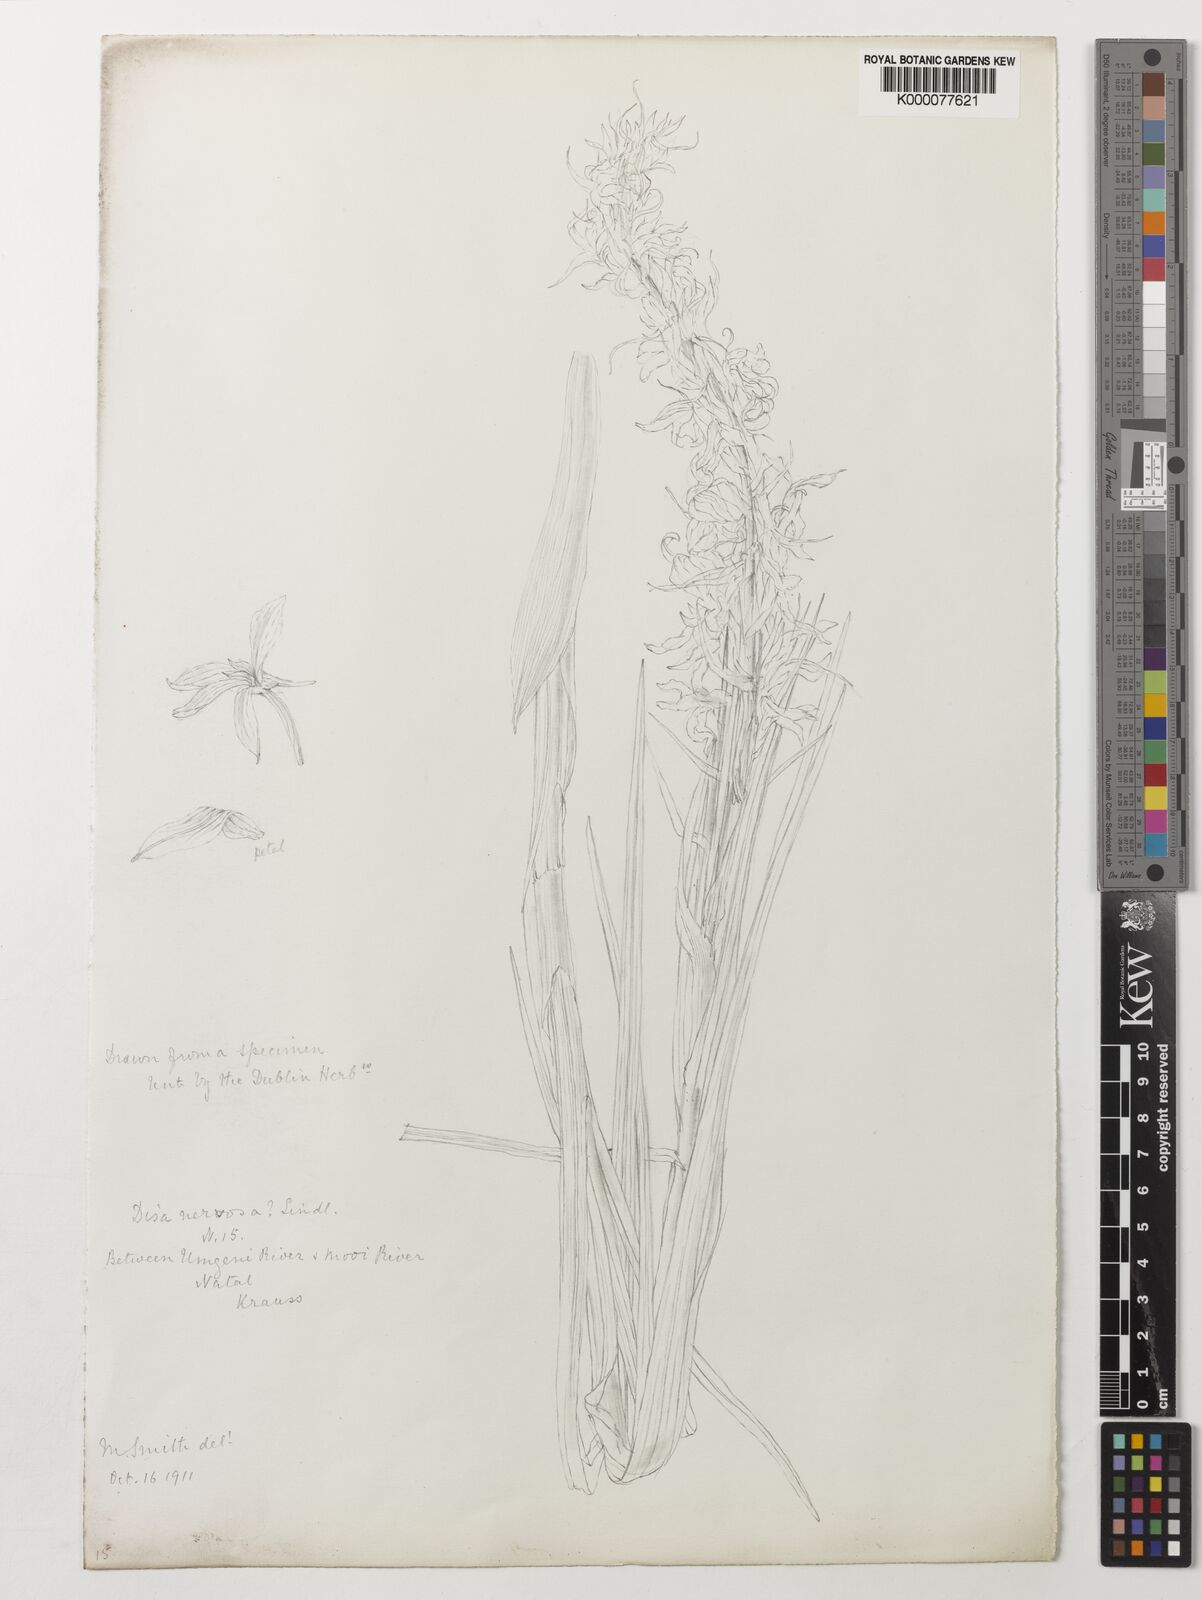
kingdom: Plantae
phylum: Tracheophyta
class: Liliopsida
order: Asparagales
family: Orchidaceae
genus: Disa
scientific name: Disa pulchra
